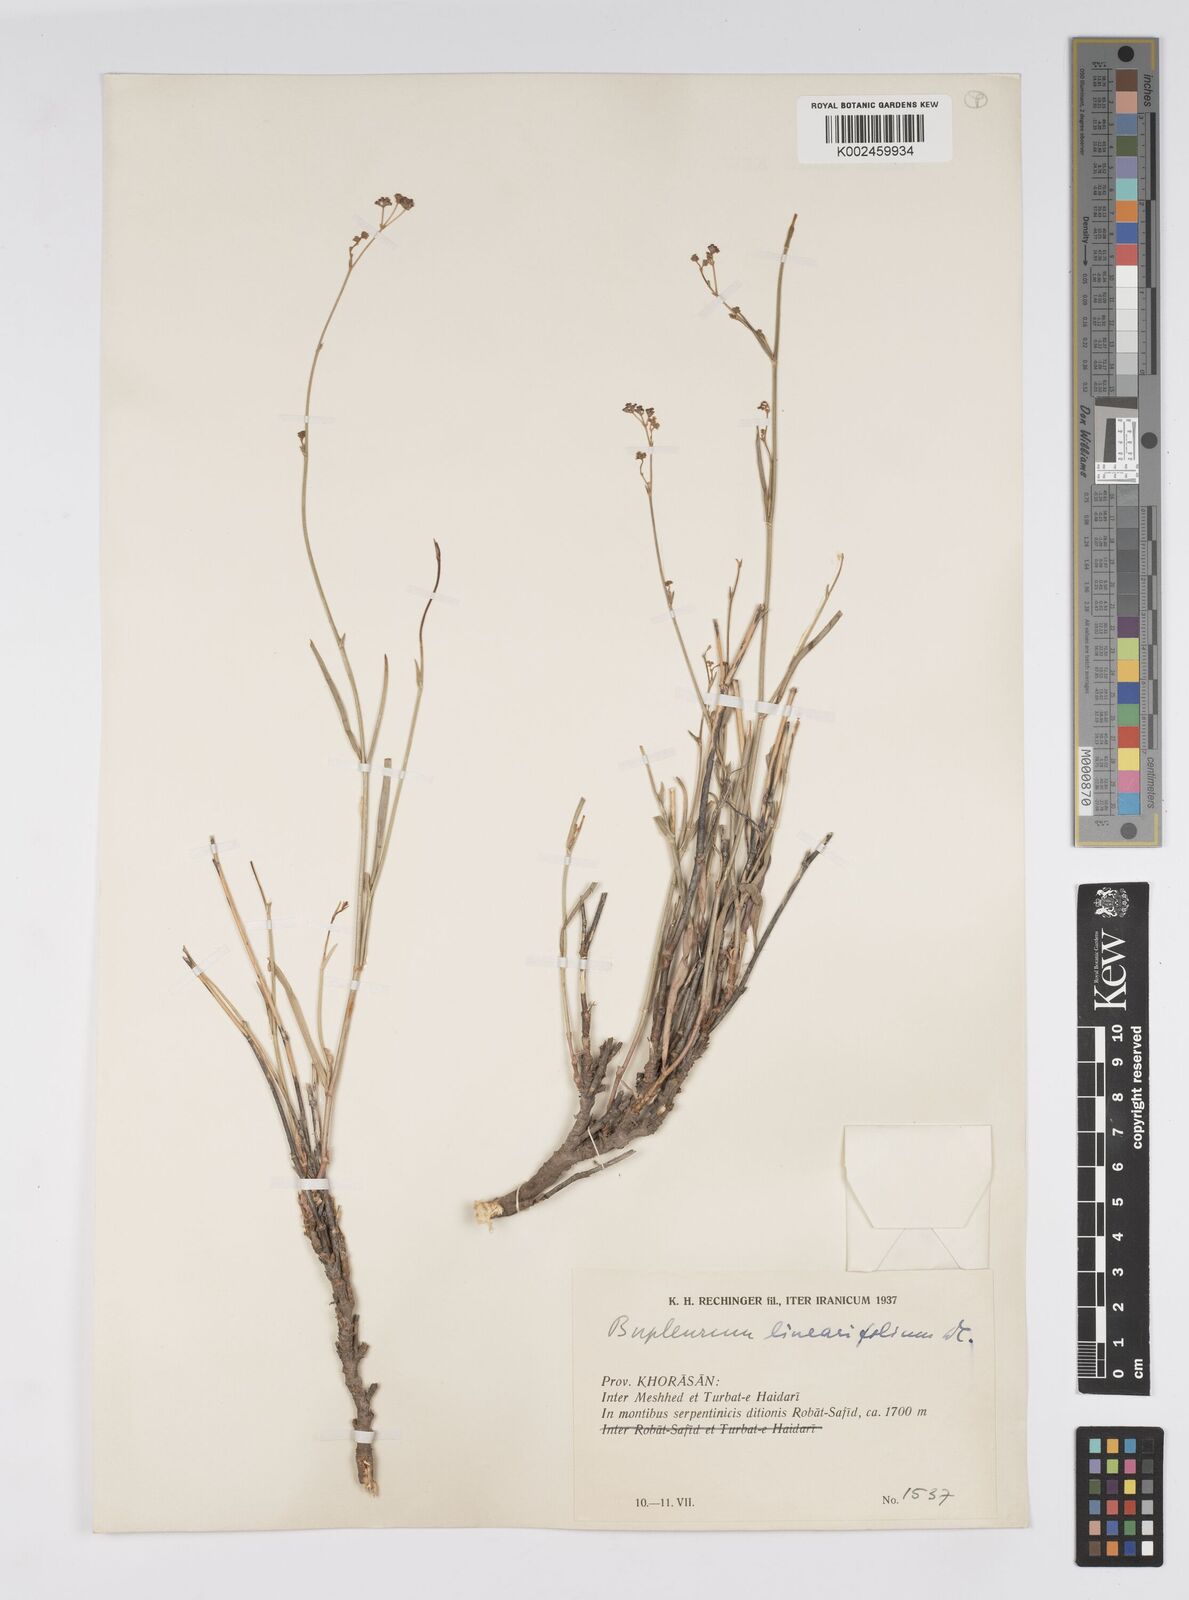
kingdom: Plantae
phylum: Tracheophyta
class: Magnoliopsida
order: Apiales
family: Apiaceae
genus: Bupleurum
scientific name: Bupleurum falcatum
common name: Sickle-leaved hare's-ear
